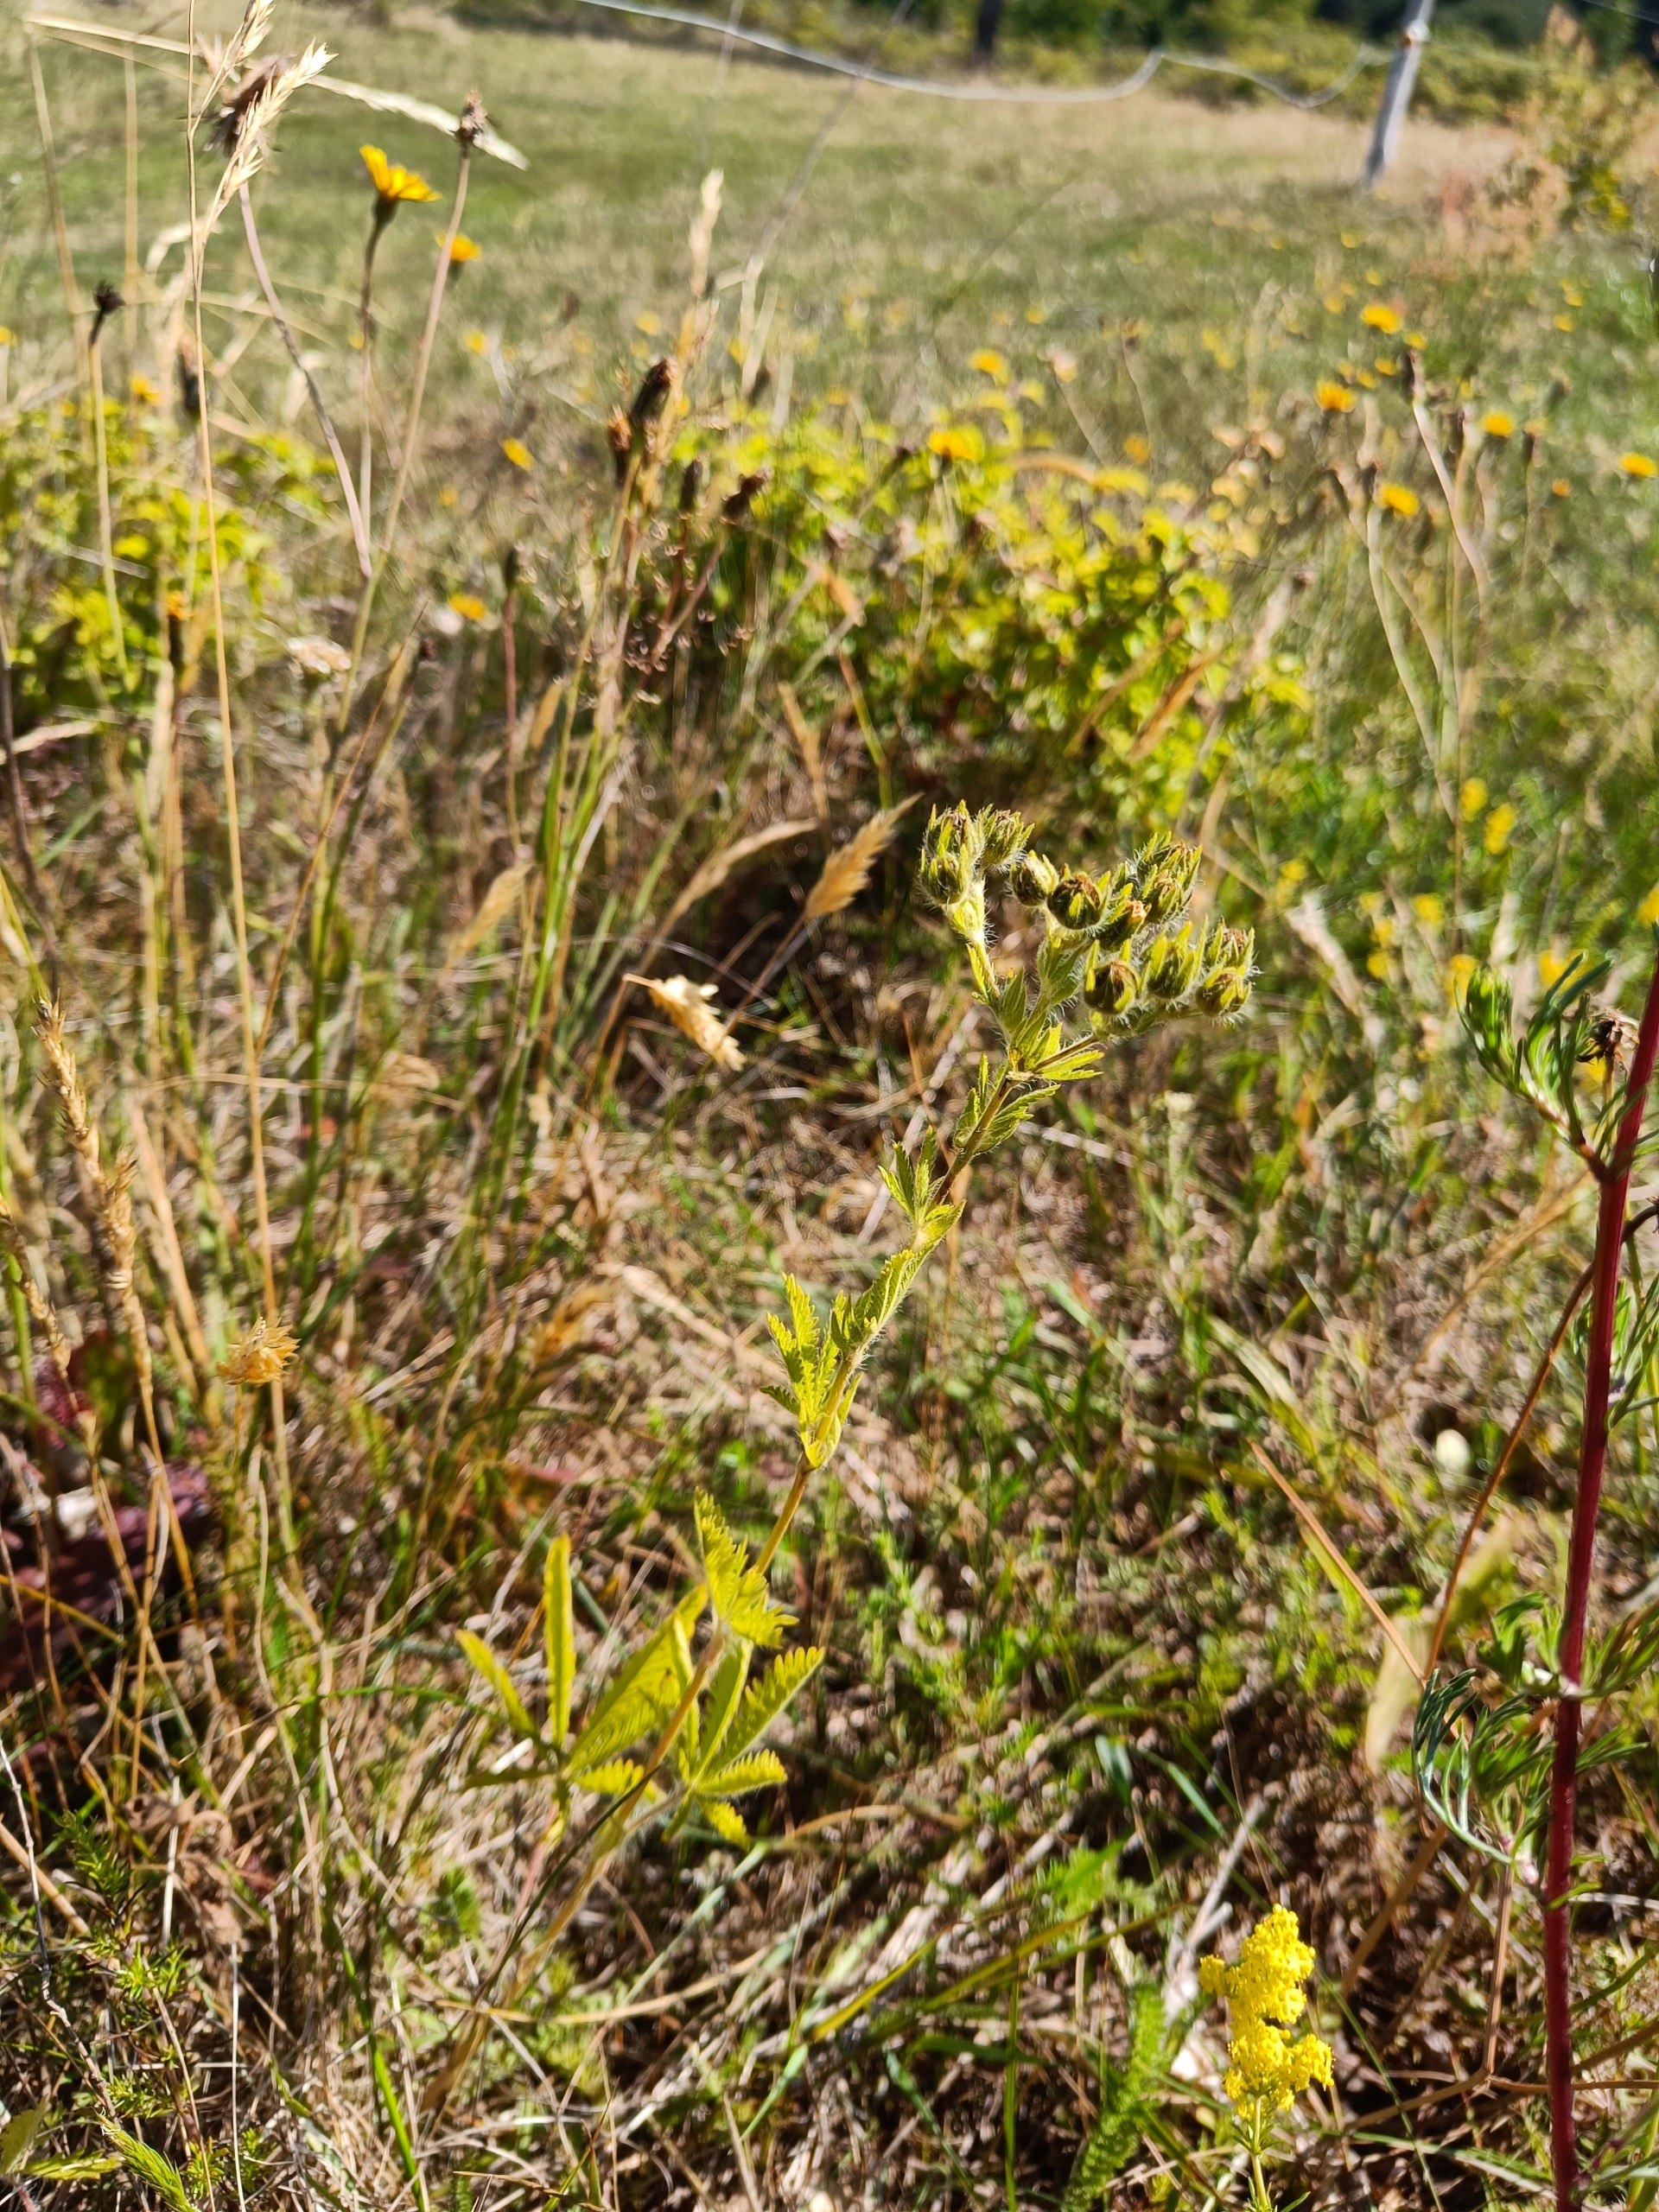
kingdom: Plantae
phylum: Tracheophyta
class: Magnoliopsida
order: Rosales
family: Rosaceae
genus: Potentilla
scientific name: Potentilla recta
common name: Rank potentil
